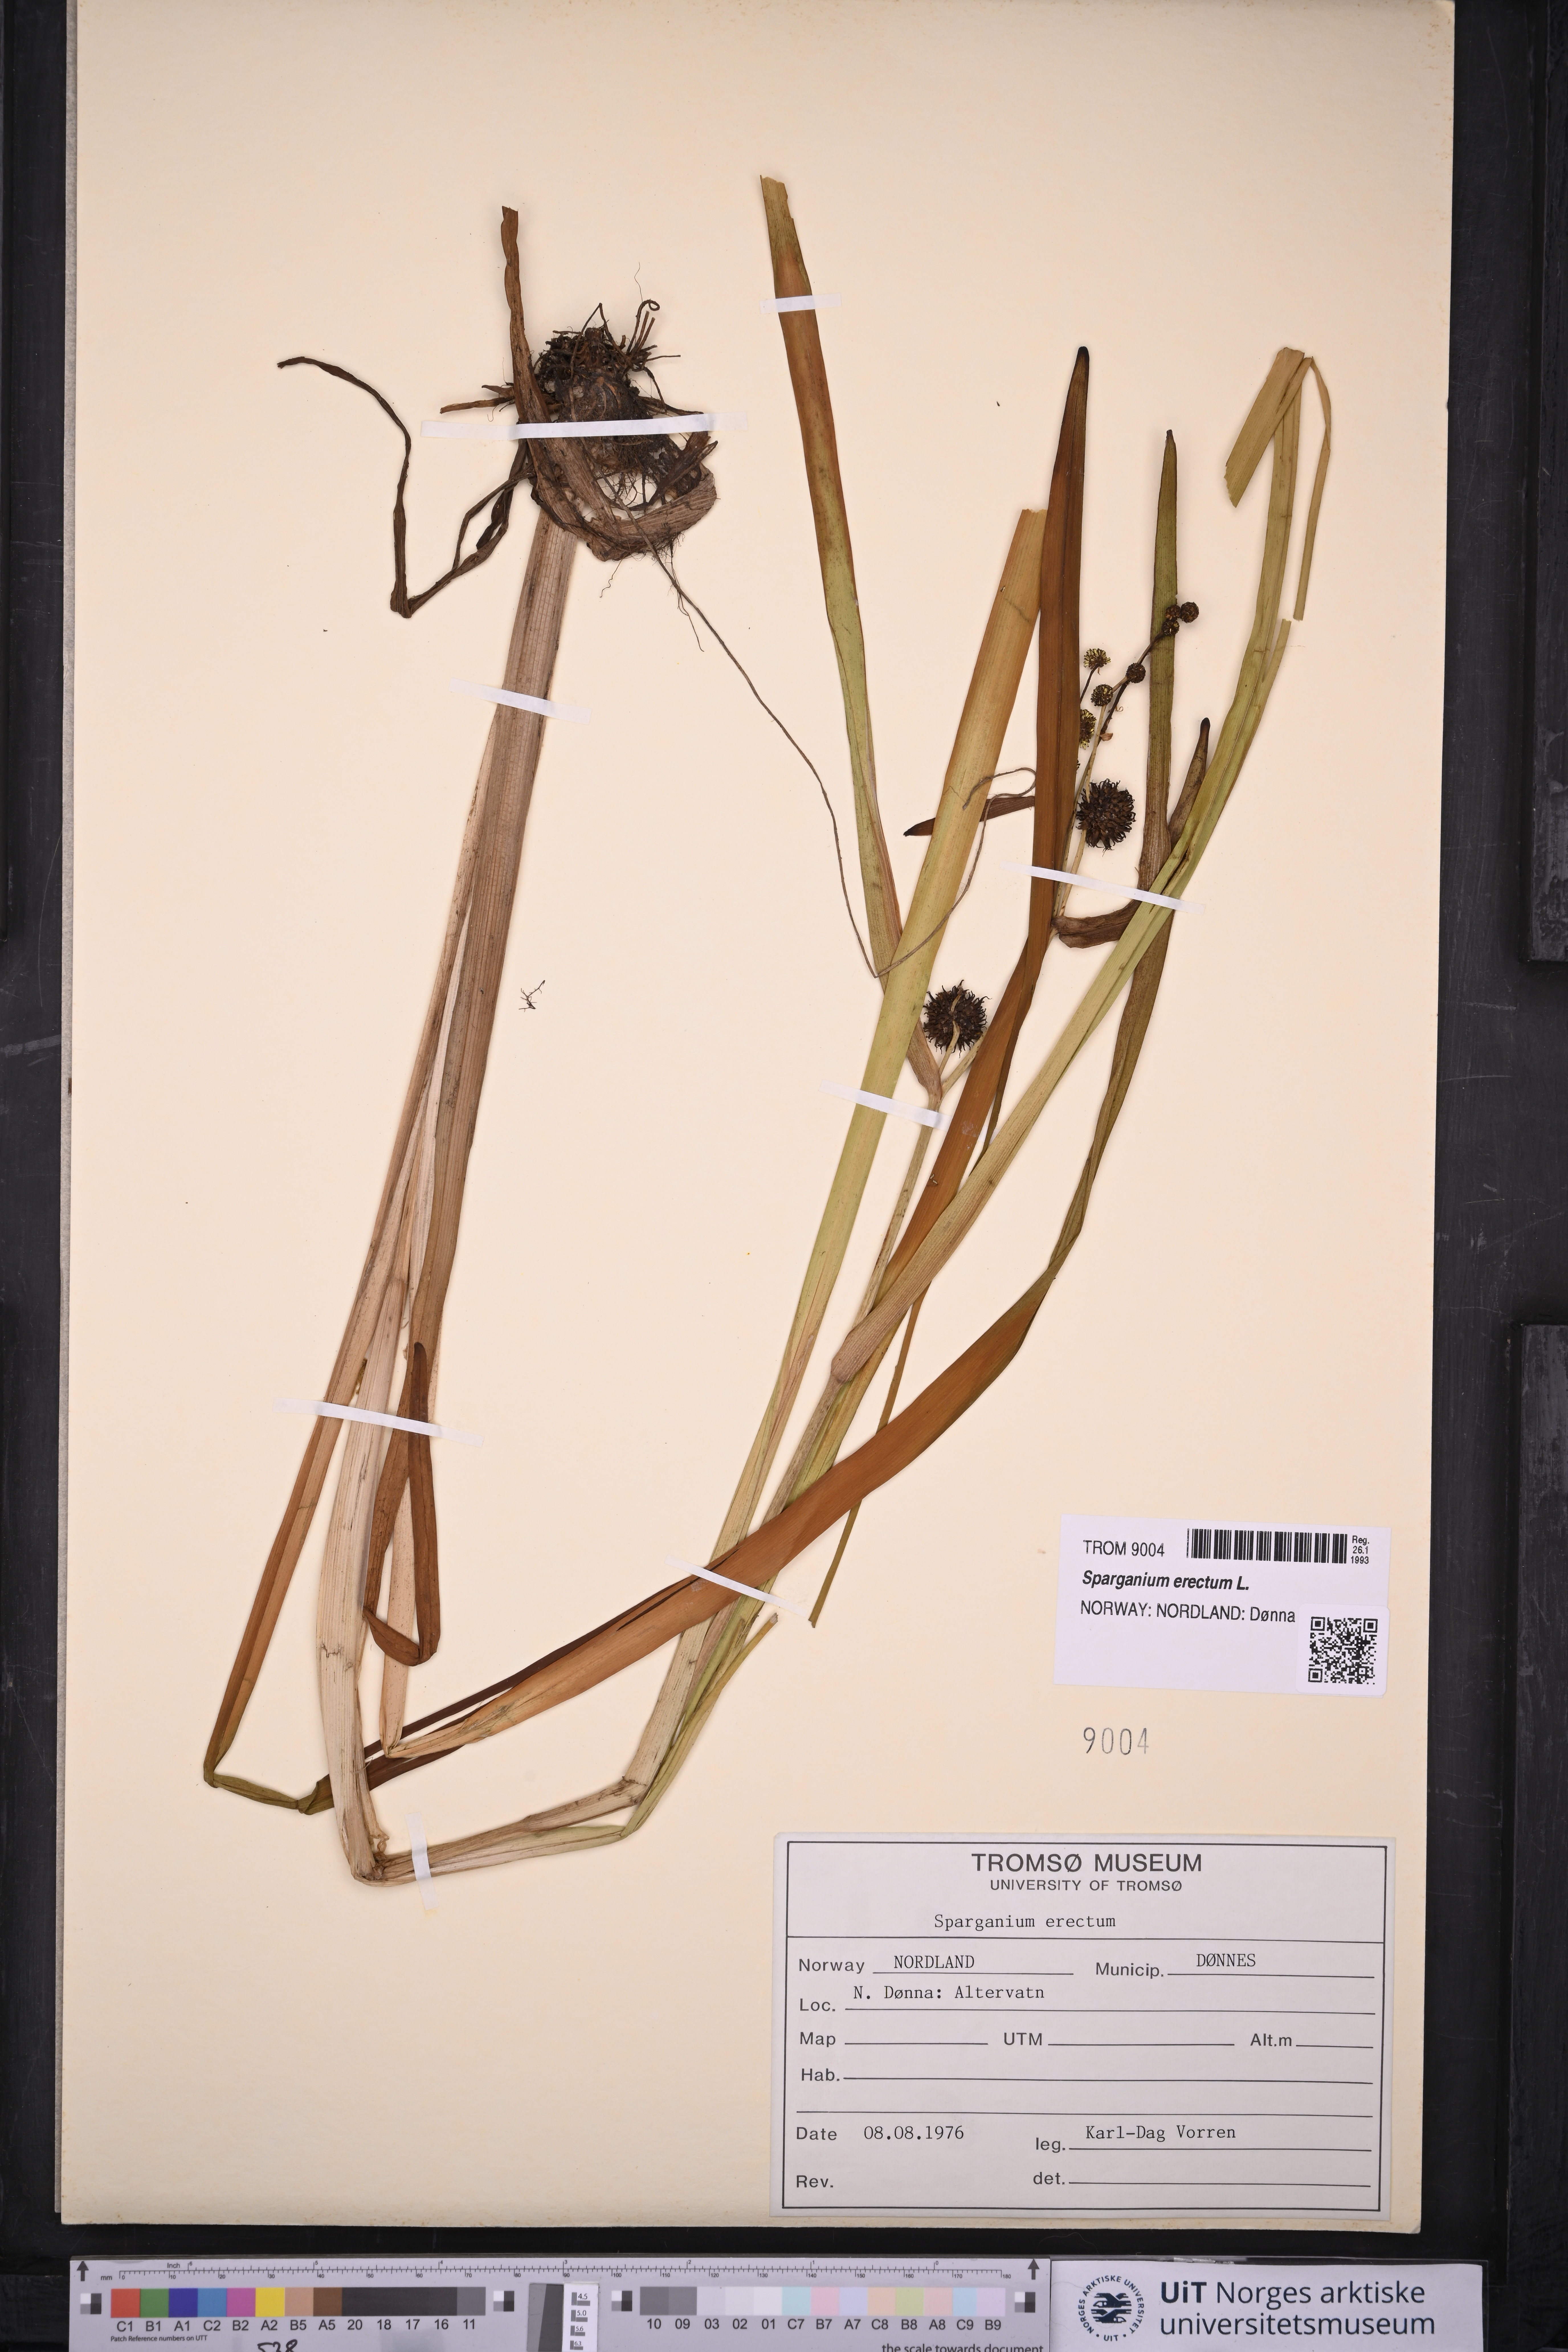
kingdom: Plantae
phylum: Tracheophyta
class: Liliopsida
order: Poales
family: Typhaceae
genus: Sparganium
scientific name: Sparganium erectum
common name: Branched bur-reed
